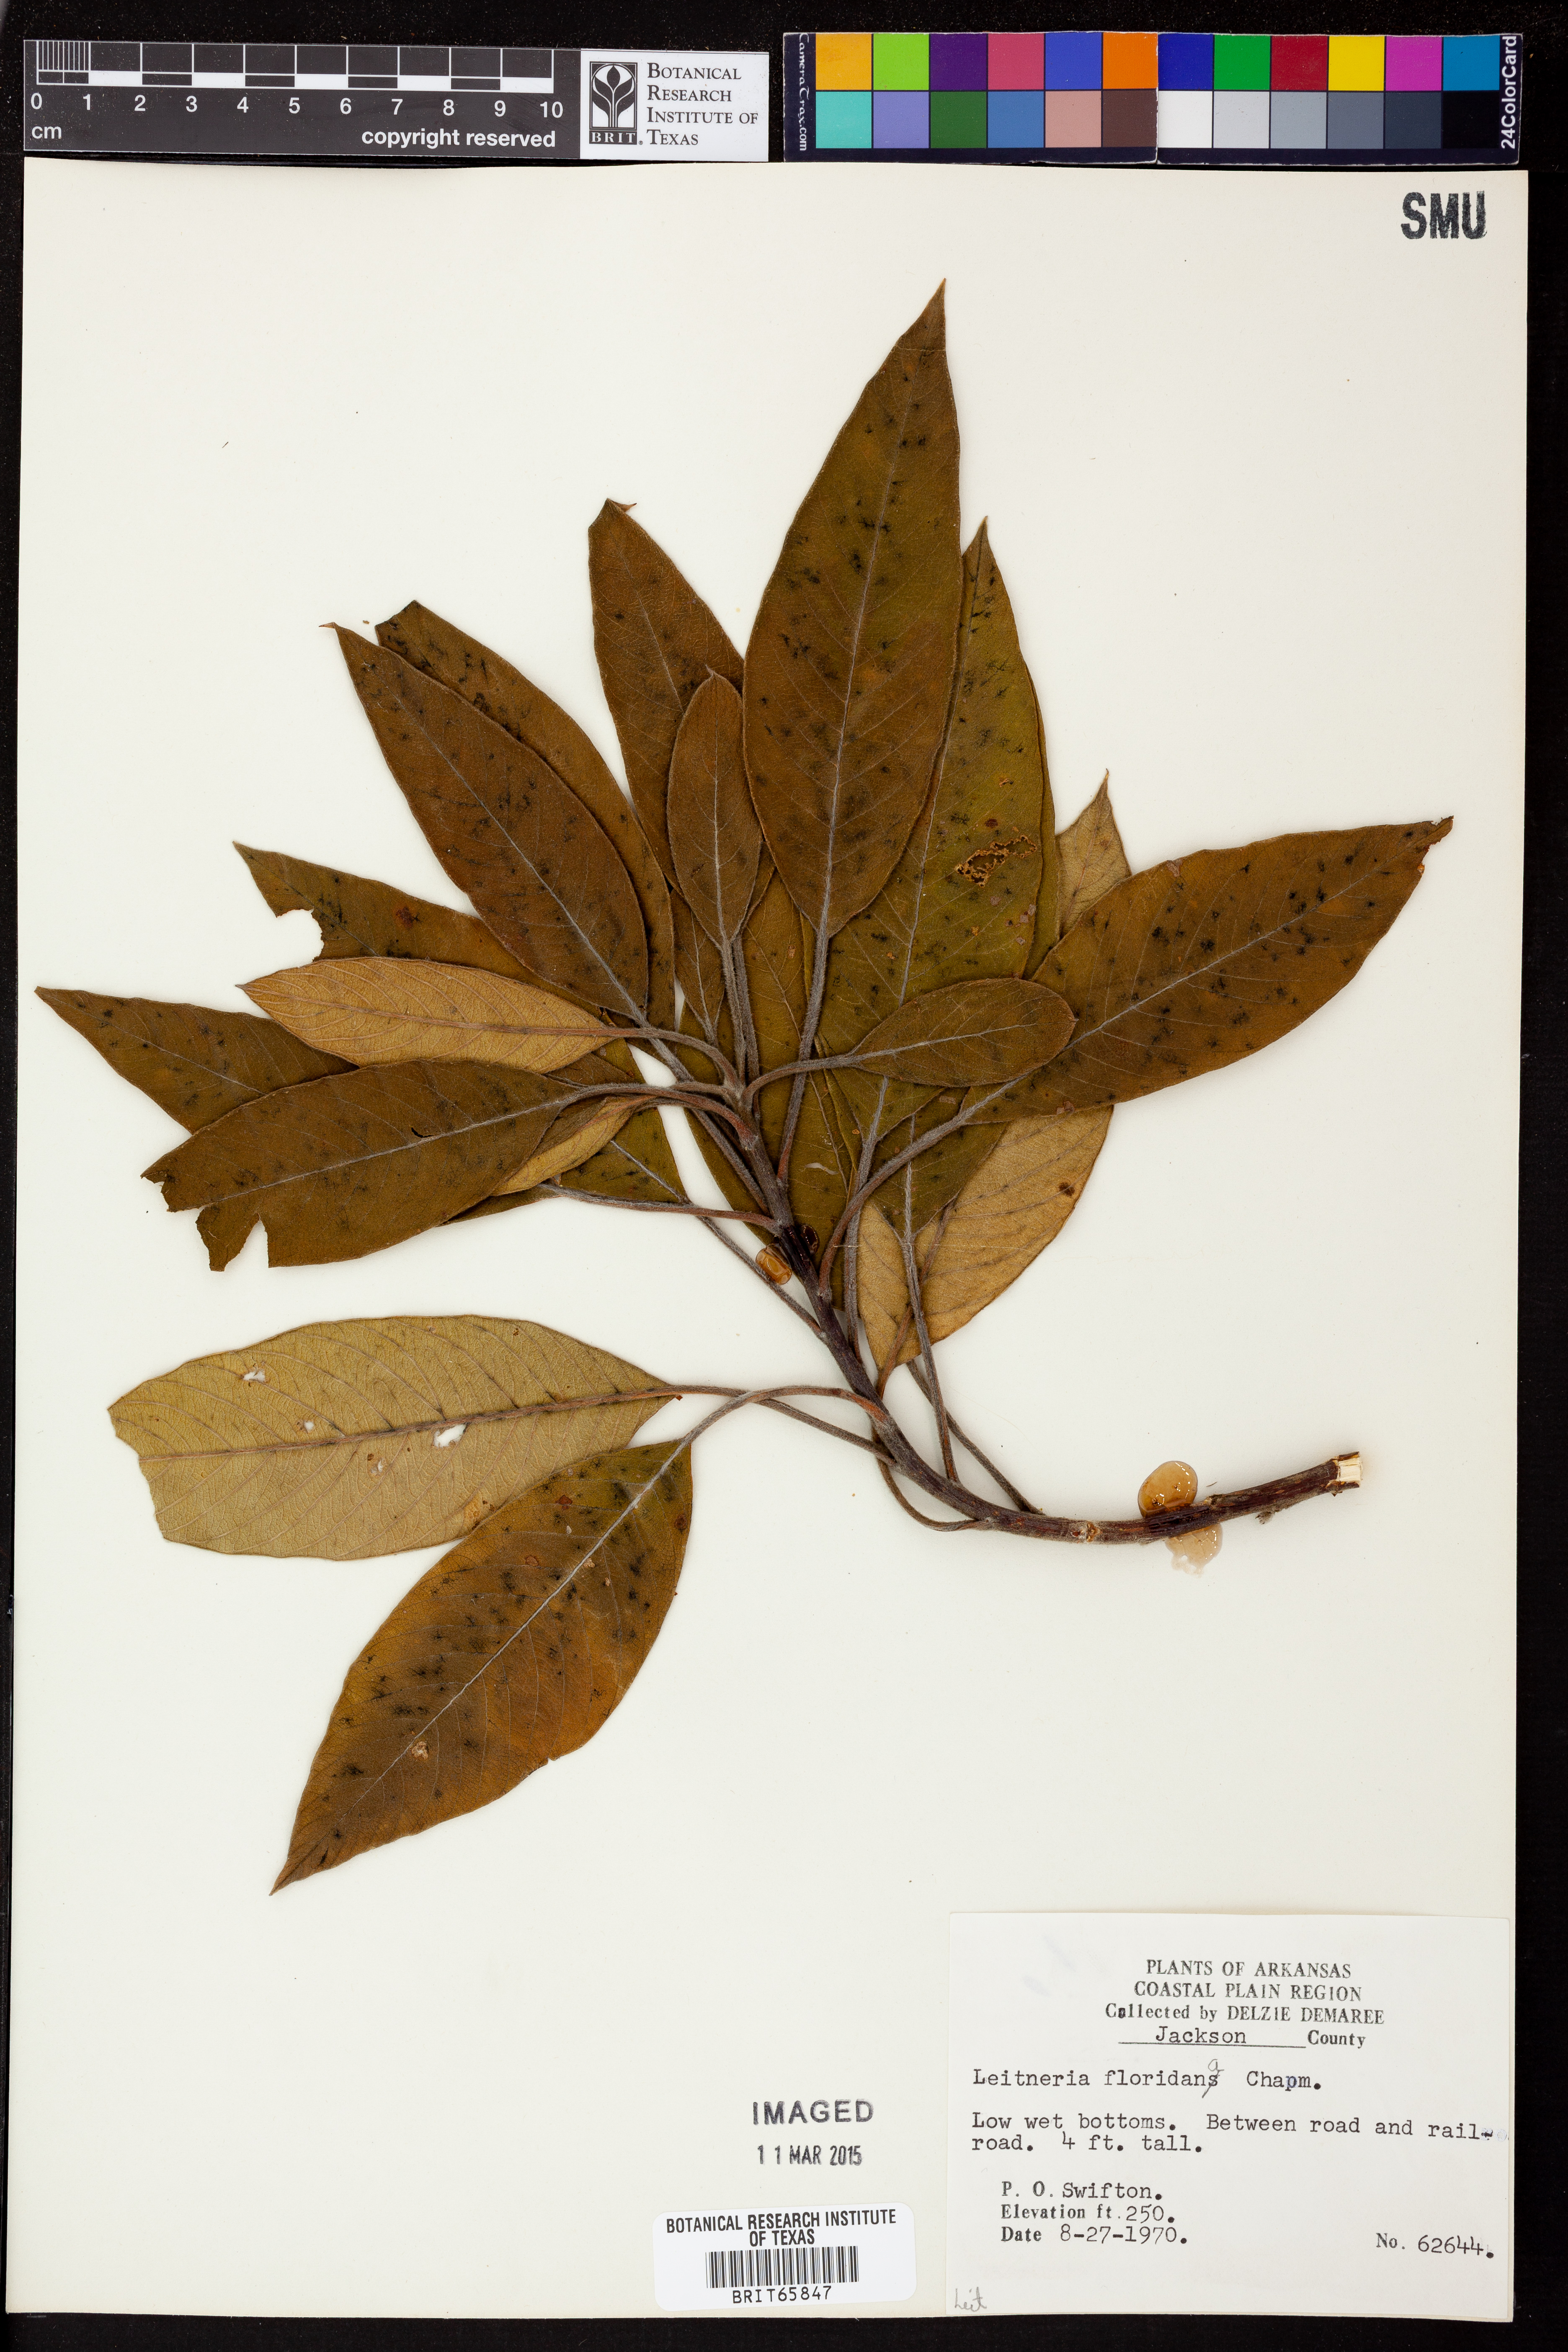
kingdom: Plantae
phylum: Tracheophyta
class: Magnoliopsida
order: Sapindales
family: Simaroubaceae
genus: Leitneria
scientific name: Leitneria floridana
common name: Corkwood
